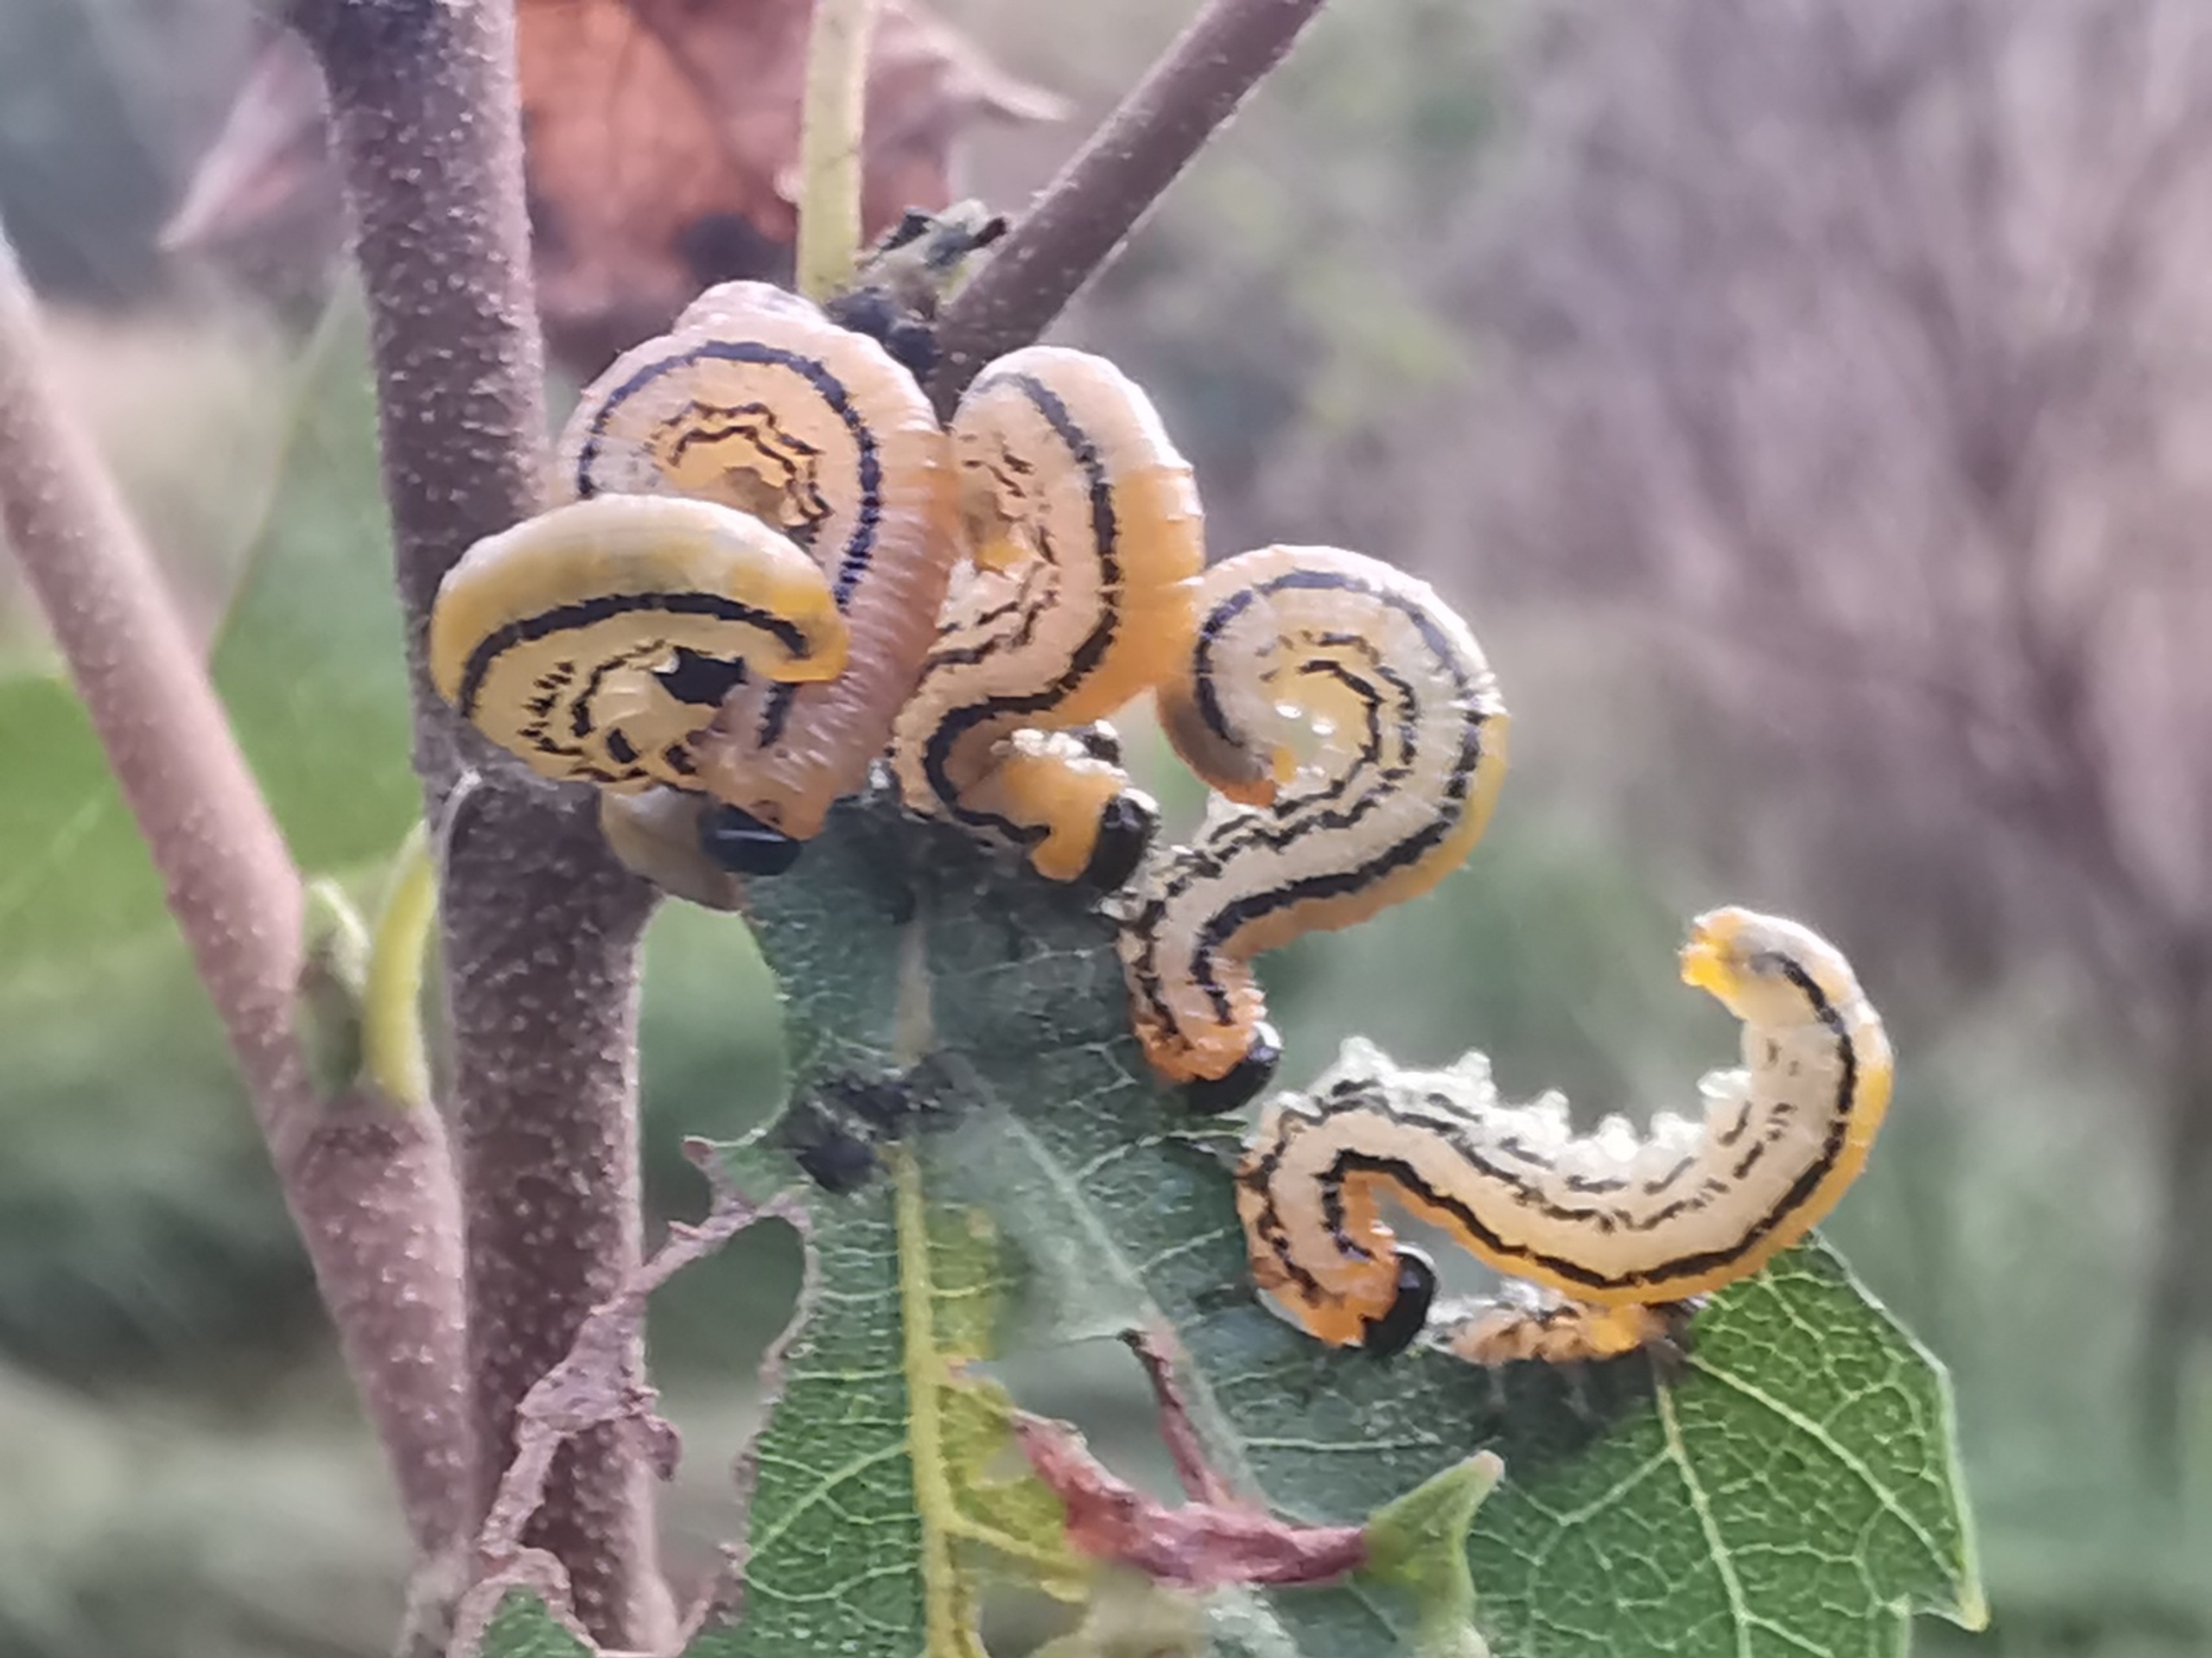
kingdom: Animalia
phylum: Arthropoda
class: Insecta
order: Hymenoptera
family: Tenthredinidae
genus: Hemichroa
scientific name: Hemichroa crocea
